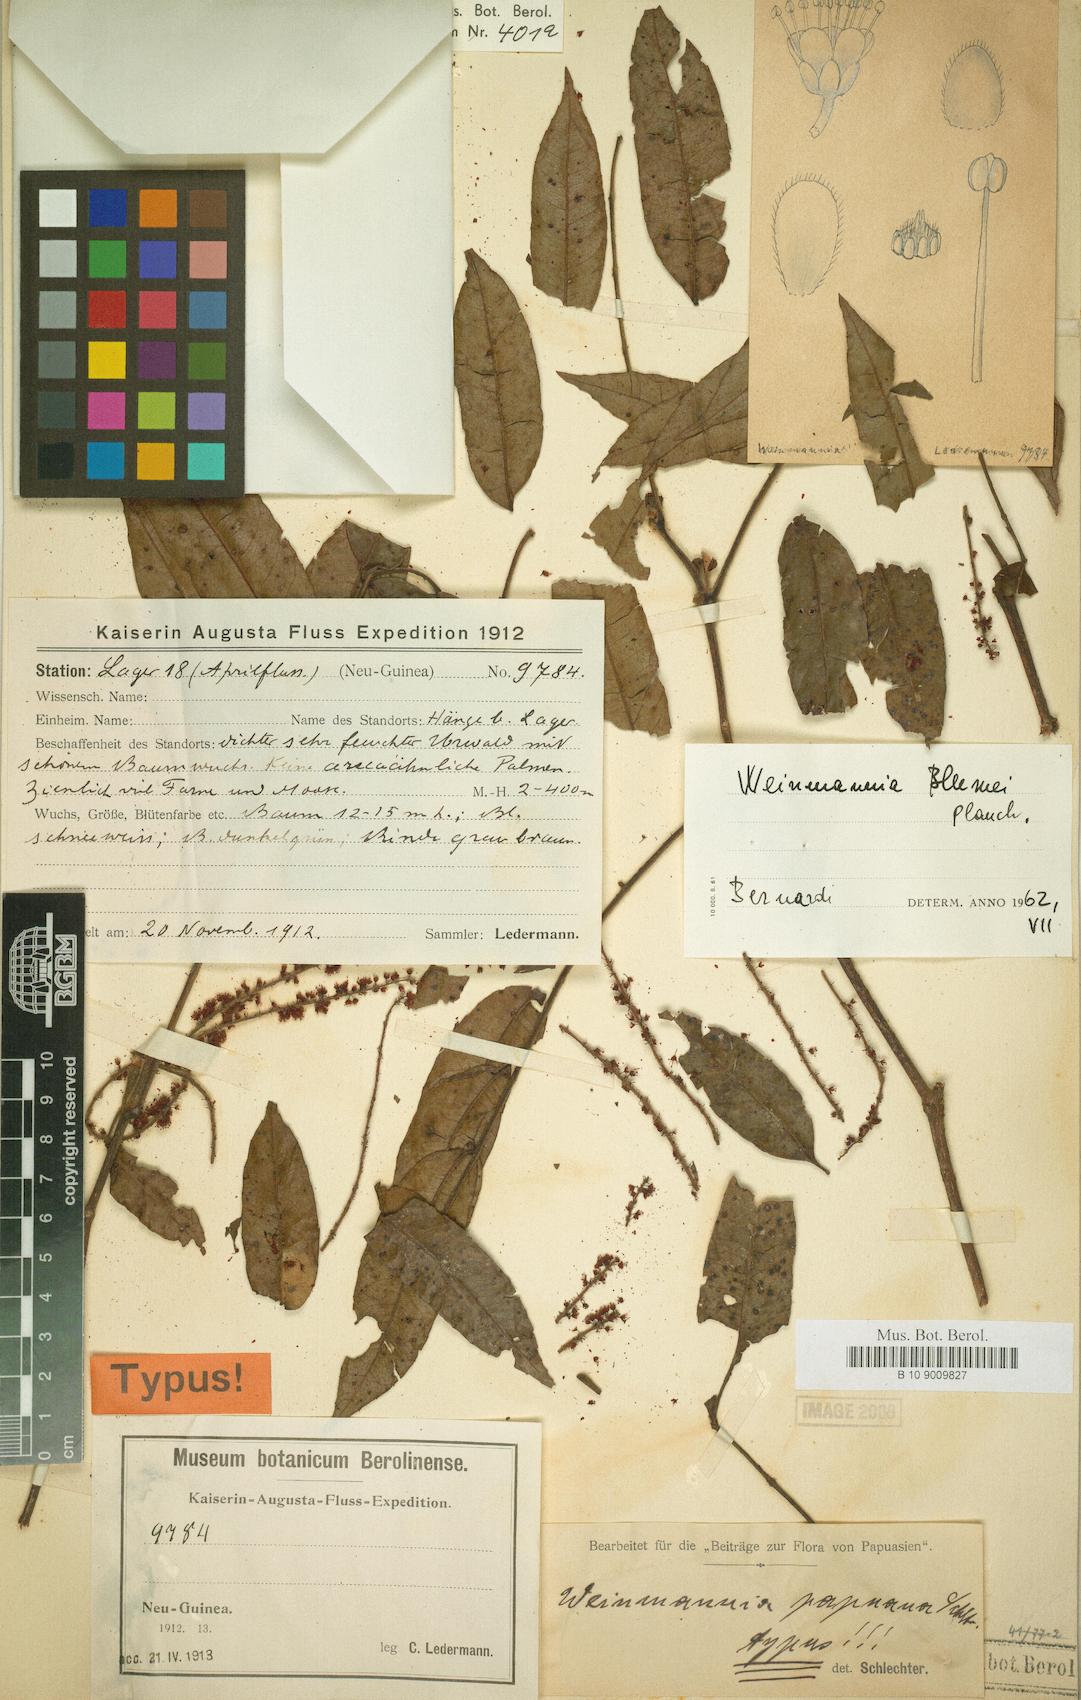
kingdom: Plantae
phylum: Tracheophyta
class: Magnoliopsida
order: Oxalidales
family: Cunoniaceae
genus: Pterophylla
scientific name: Pterophylla fraxinea
